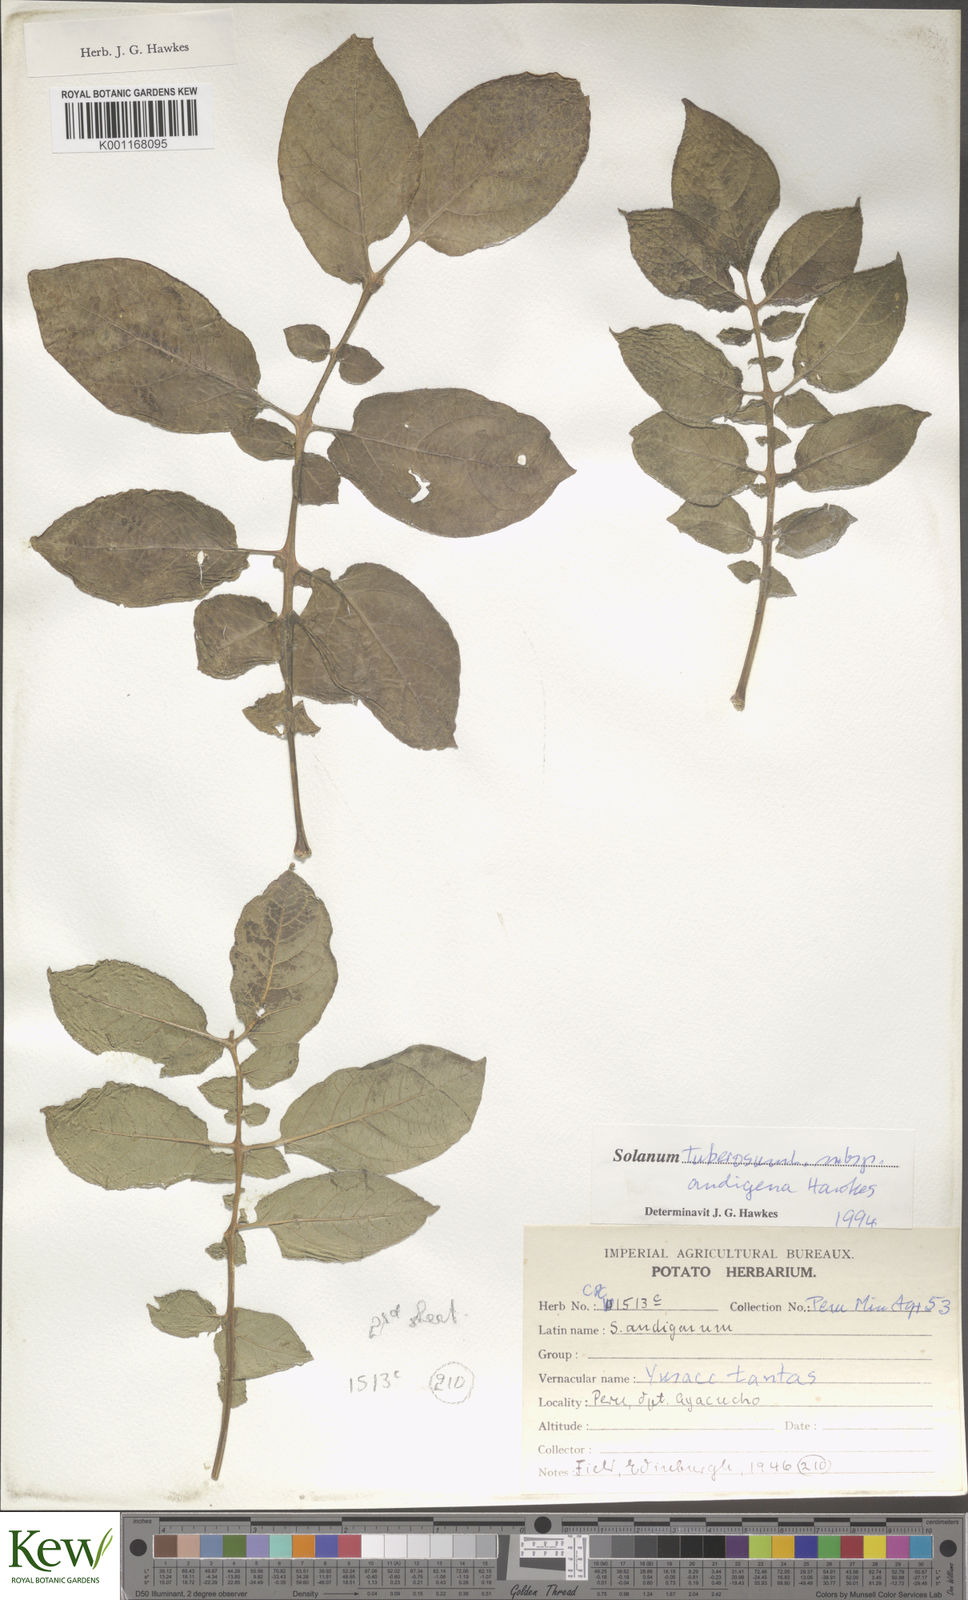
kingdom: Plantae
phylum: Tracheophyta
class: Magnoliopsida
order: Solanales
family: Solanaceae
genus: Solanum
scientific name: Solanum tuberosum
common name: Potato
